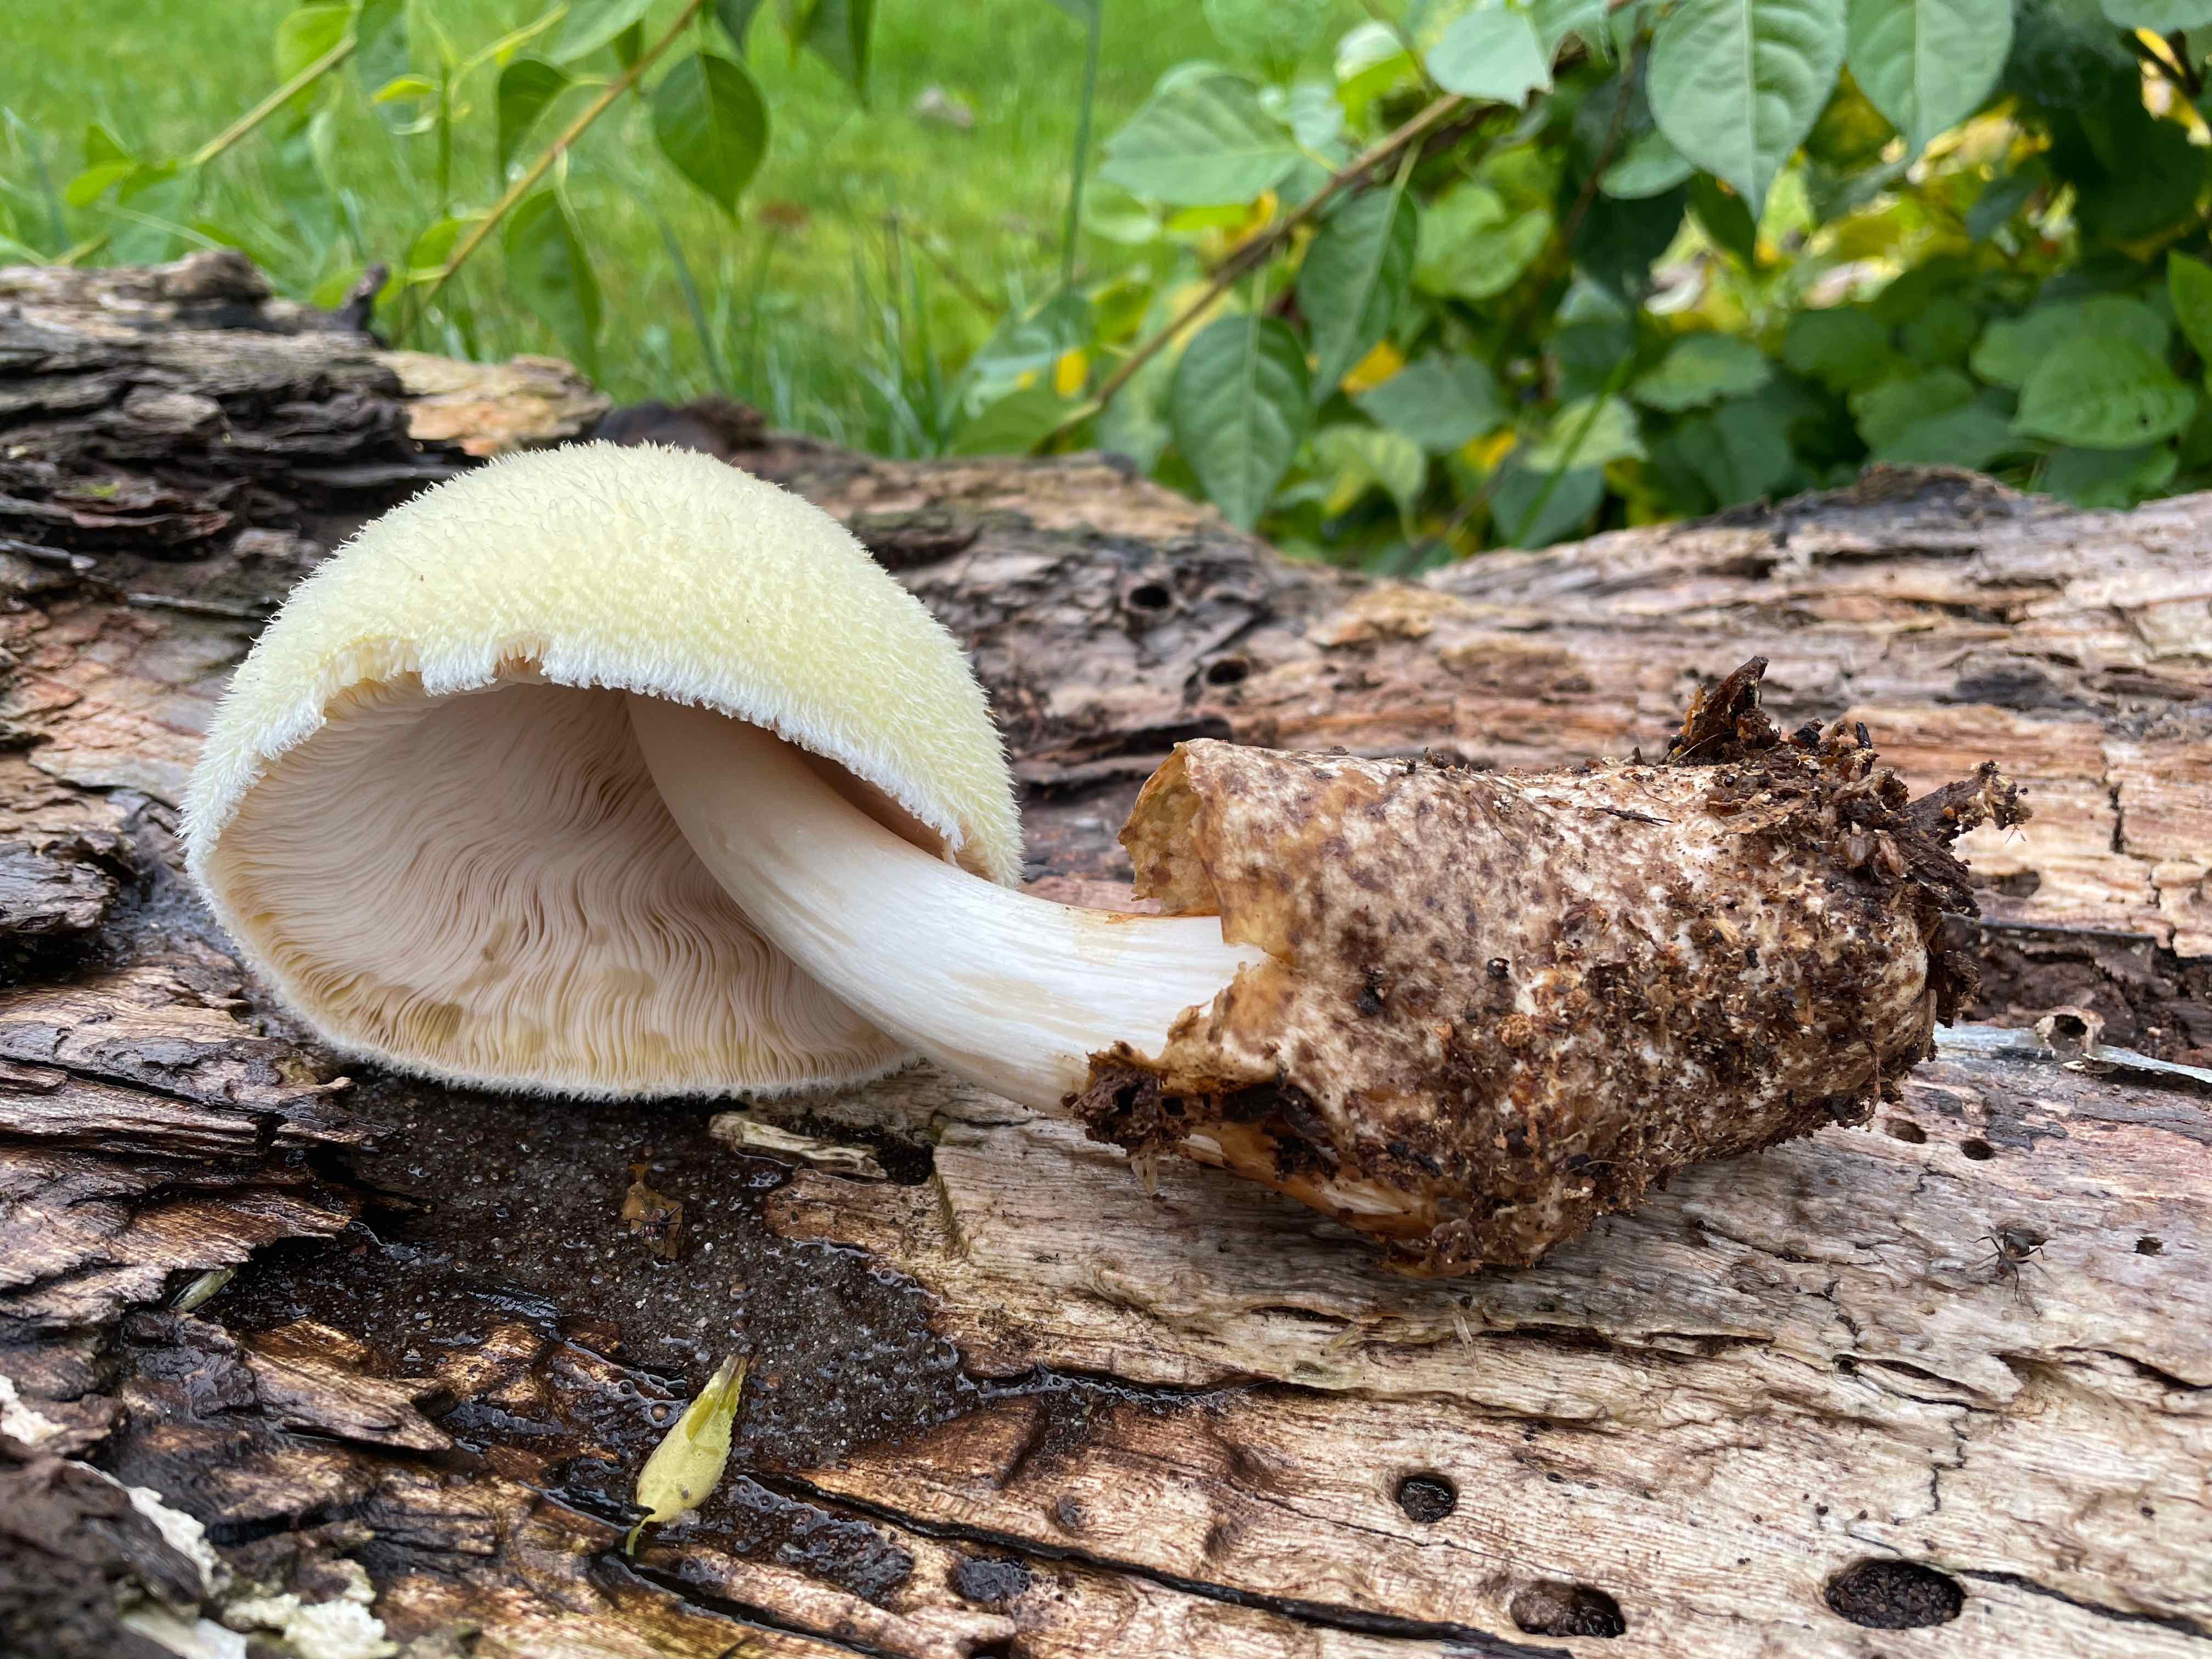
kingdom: Fungi
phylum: Basidiomycota
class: Agaricomycetes
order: Agaricales
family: Pluteaceae
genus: Volvariella
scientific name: Volvariella bombycina
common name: silkehåret posesvamp
